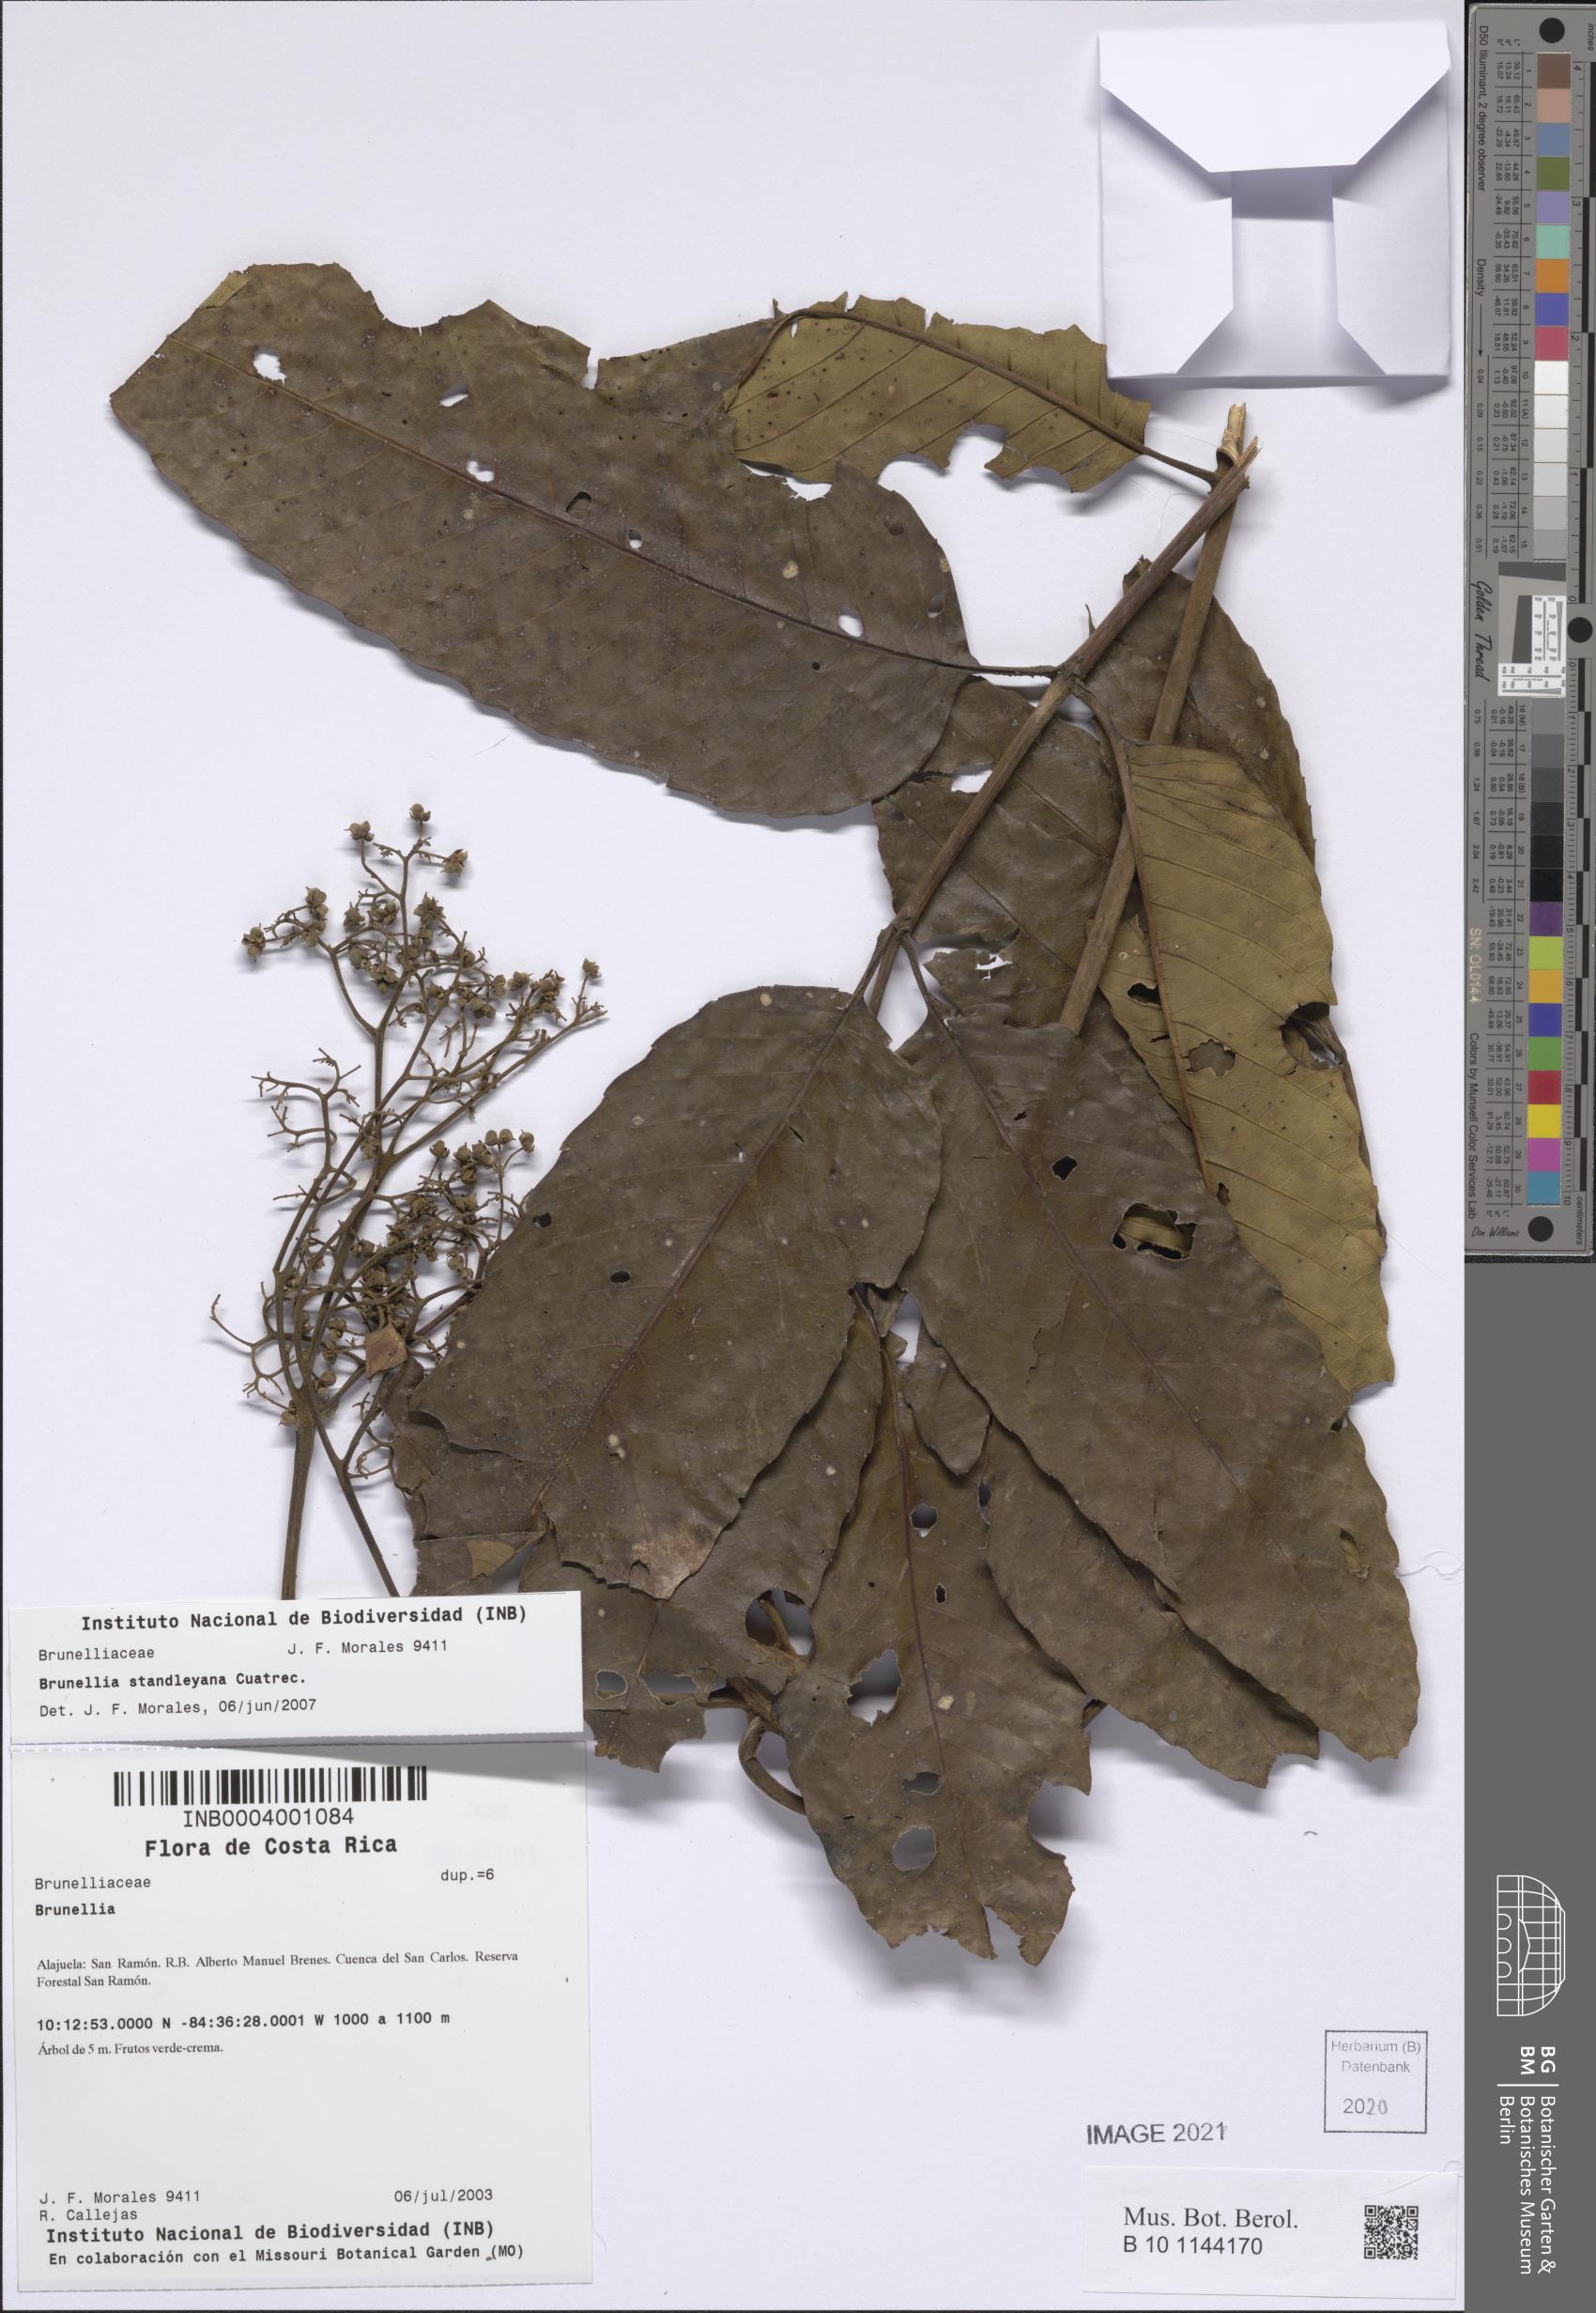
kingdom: Plantae
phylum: Tracheophyta
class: Magnoliopsida
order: Oxalidales
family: Brunelliaceae
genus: Brunellia
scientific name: Brunellia
